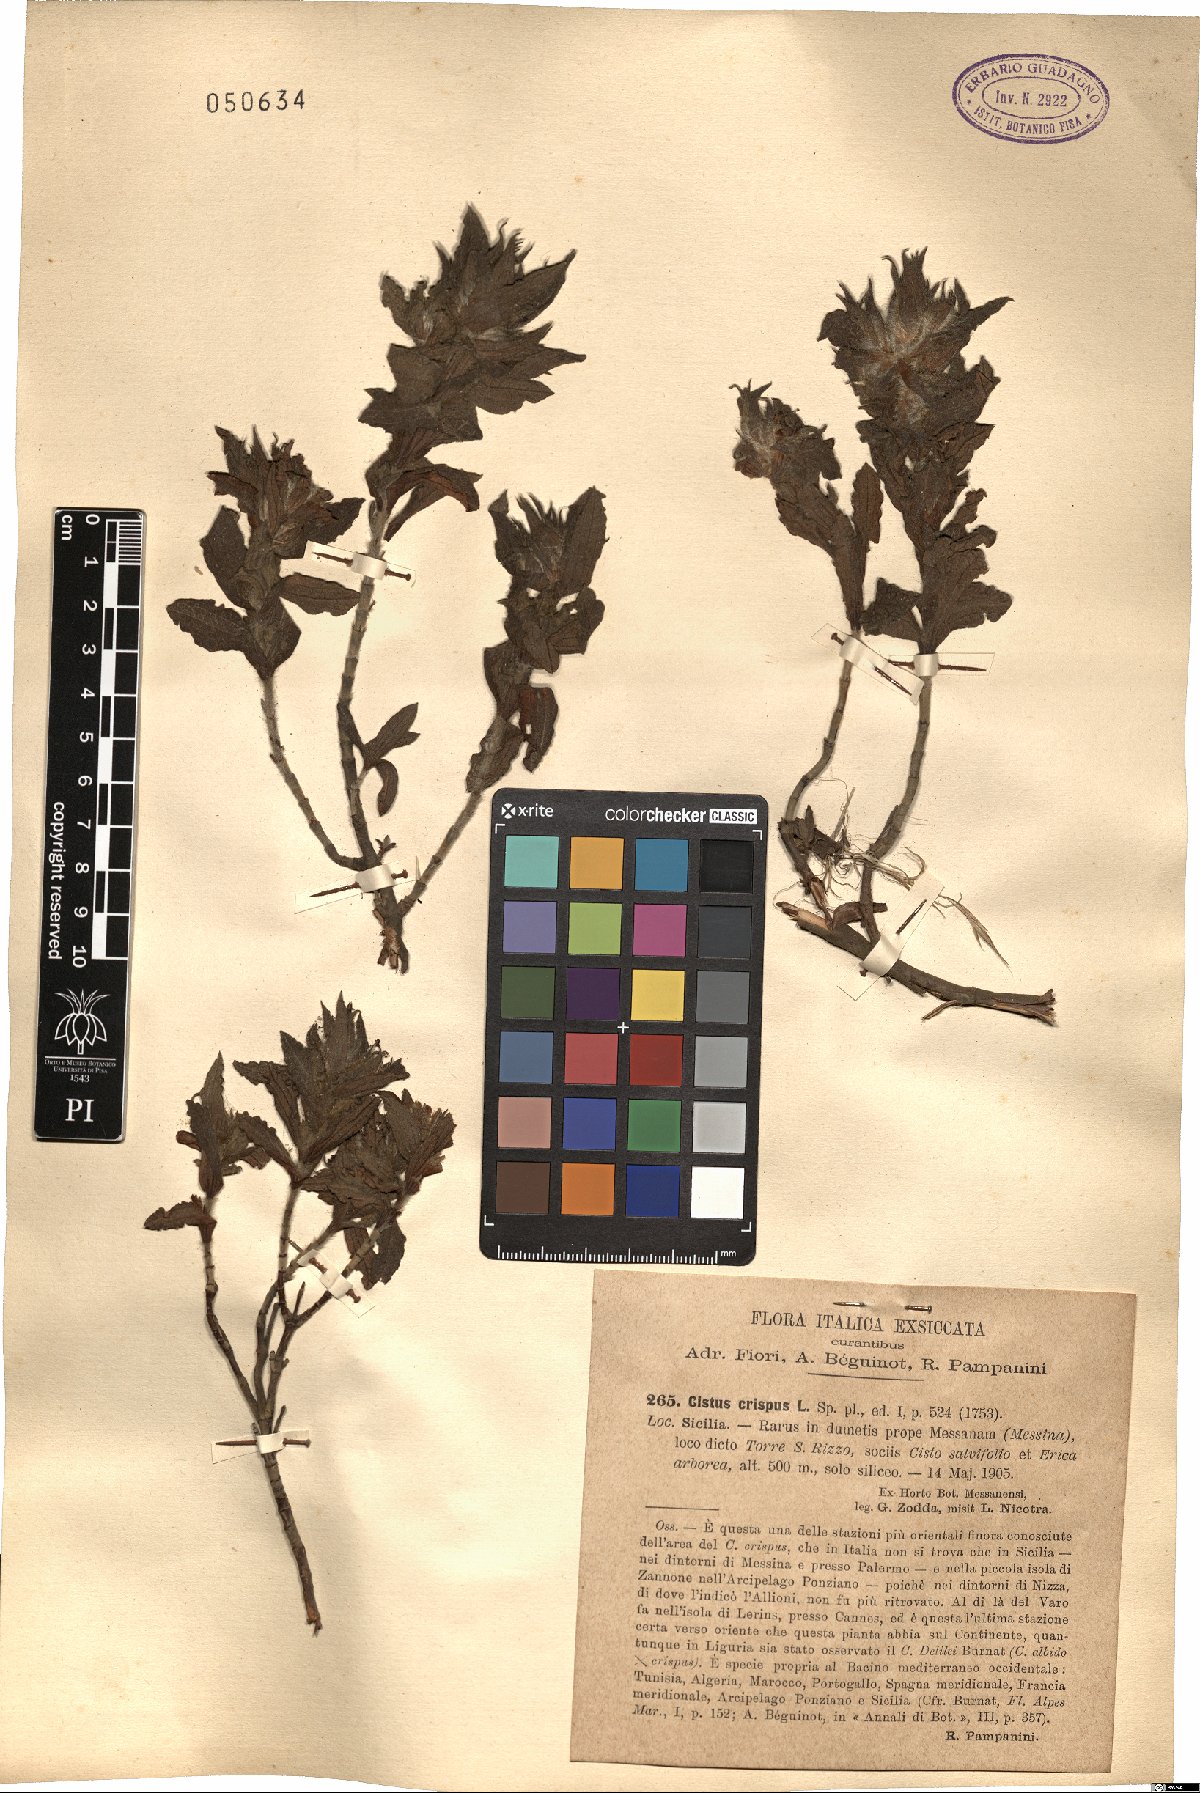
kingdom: Plantae
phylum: Tracheophyta
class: Magnoliopsida
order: Malvales
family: Cistaceae
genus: Cistus
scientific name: Cistus crispus
